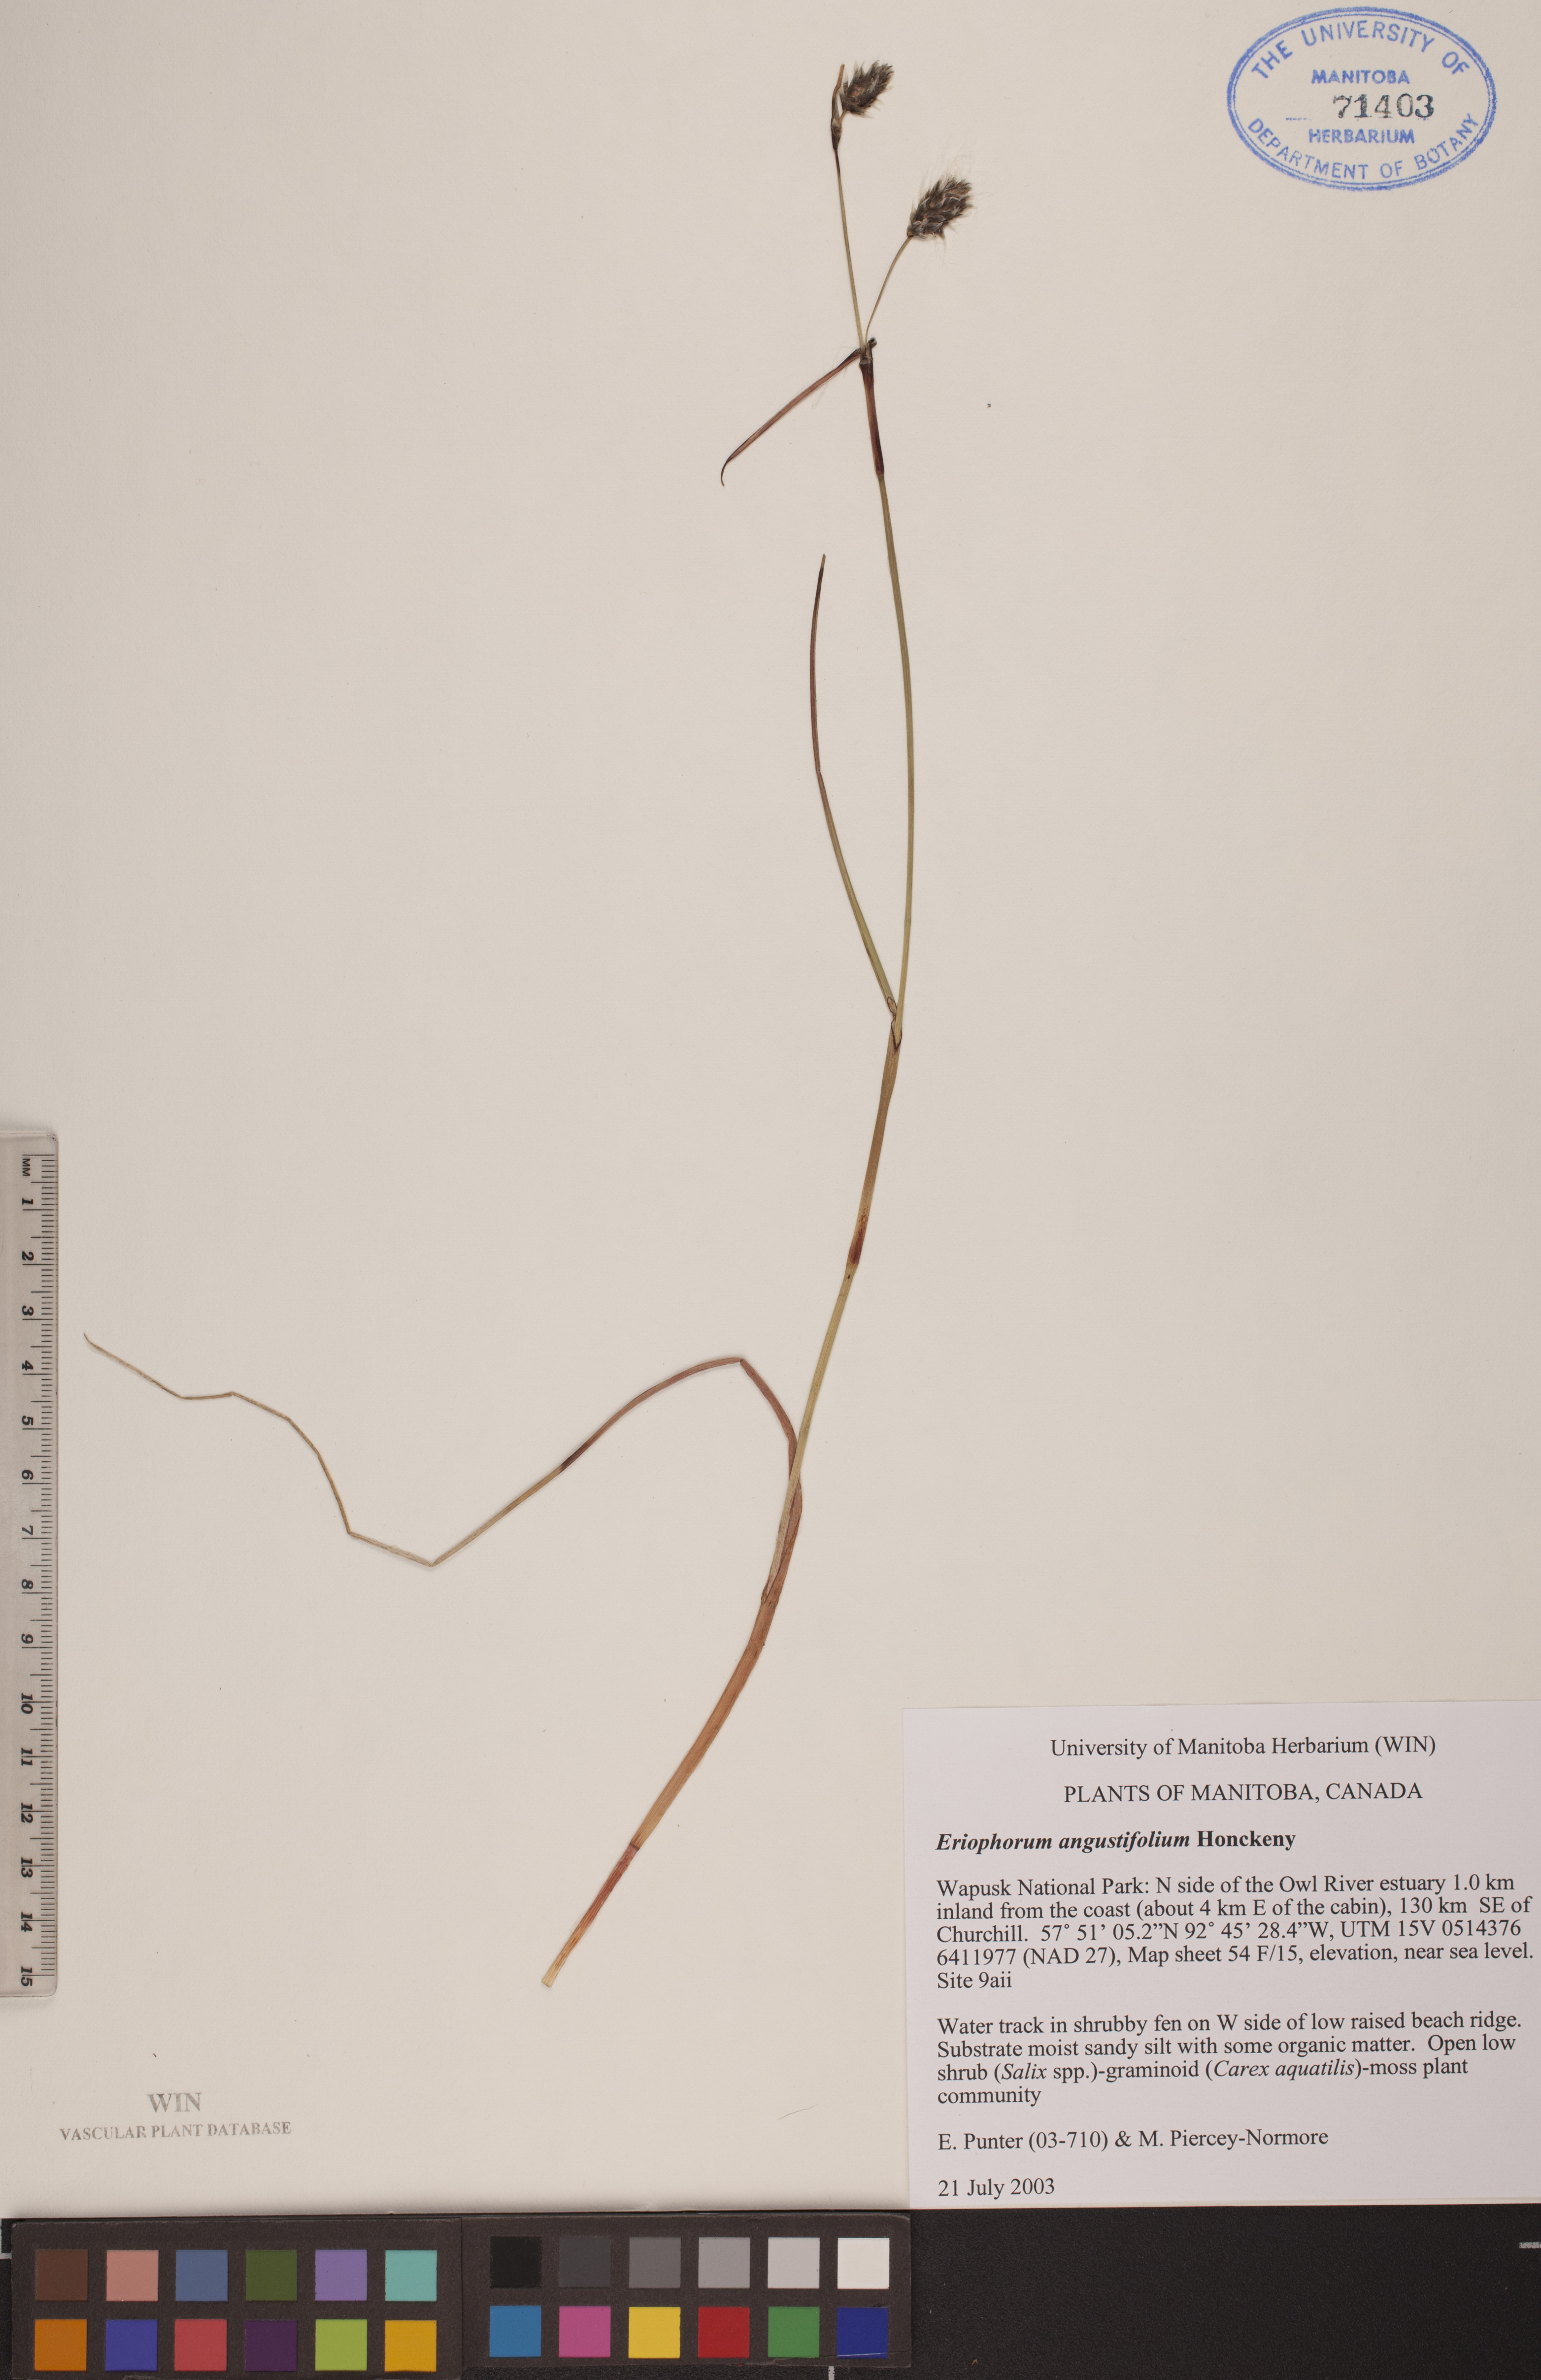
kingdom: Plantae
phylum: Tracheophyta
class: Liliopsida
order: Poales
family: Cyperaceae
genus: Eriophorum
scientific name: Eriophorum angustifolium
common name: Common cottongrass
